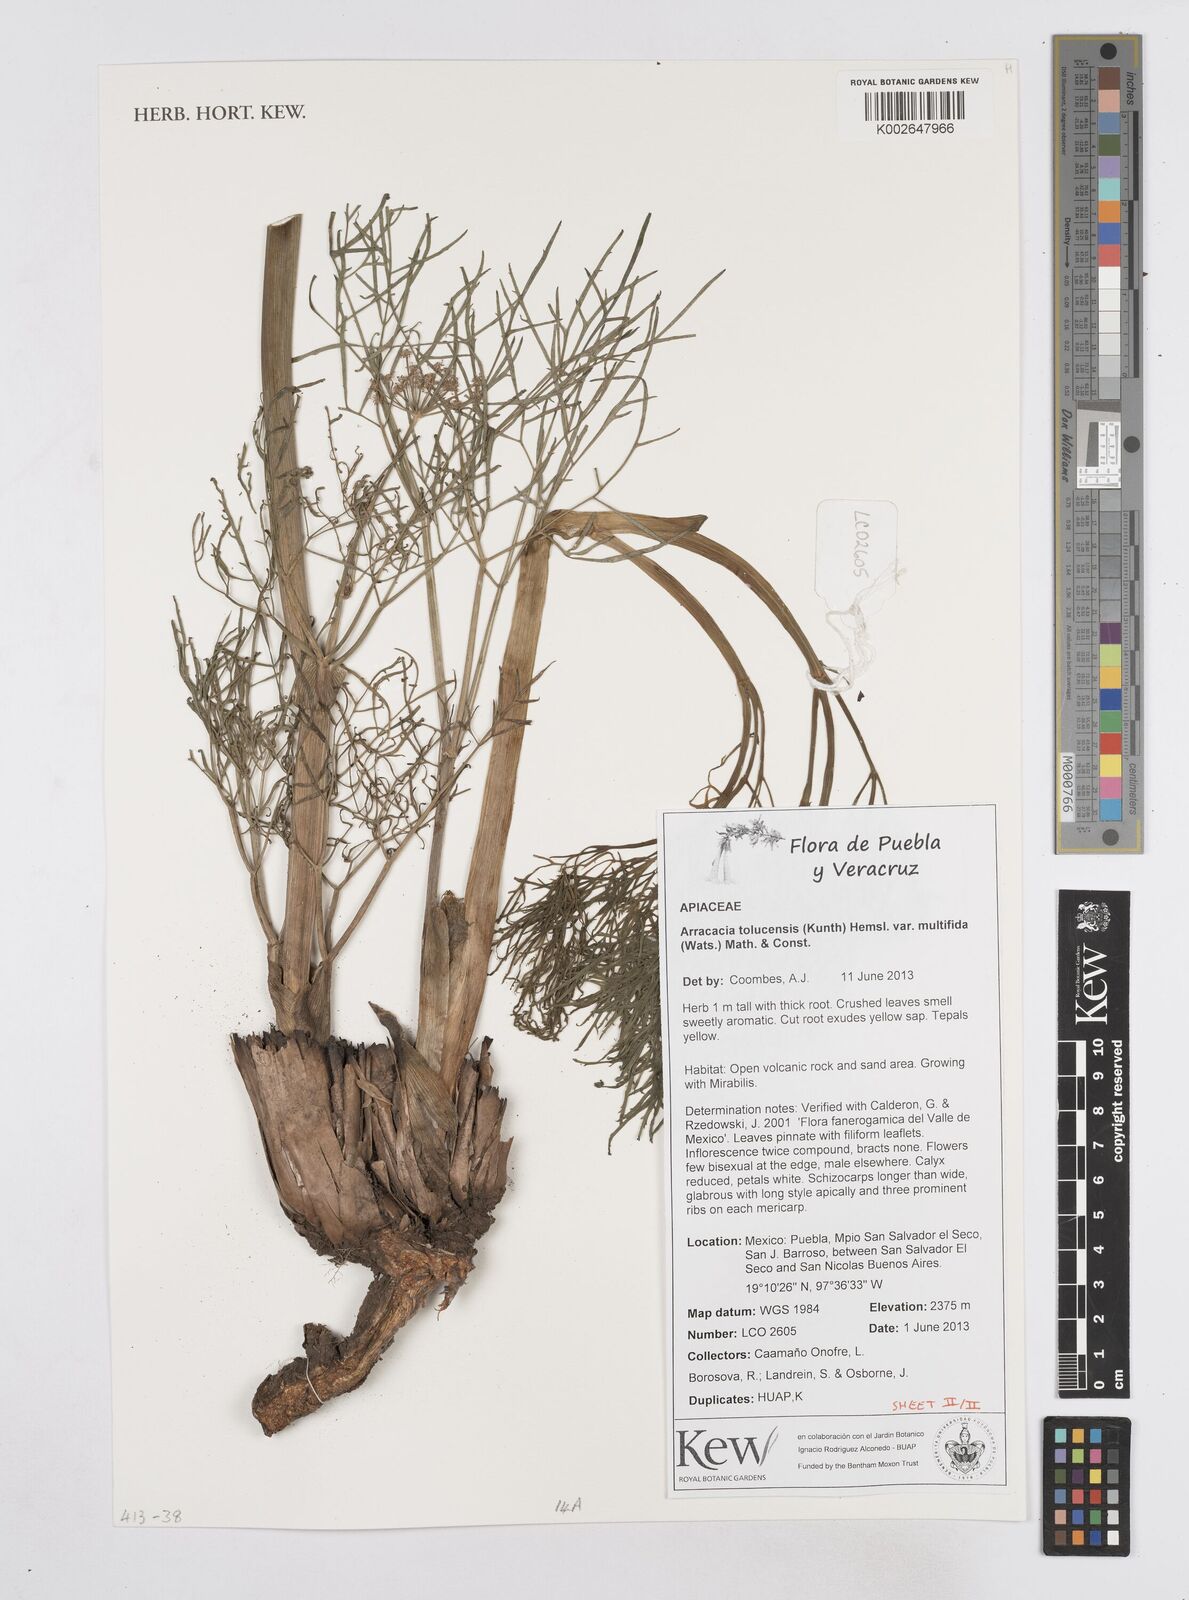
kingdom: Plantae
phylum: Tracheophyta
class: Magnoliopsida
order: Apiales
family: Apiaceae
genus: Arracacia
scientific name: Arracacia tolucensis
